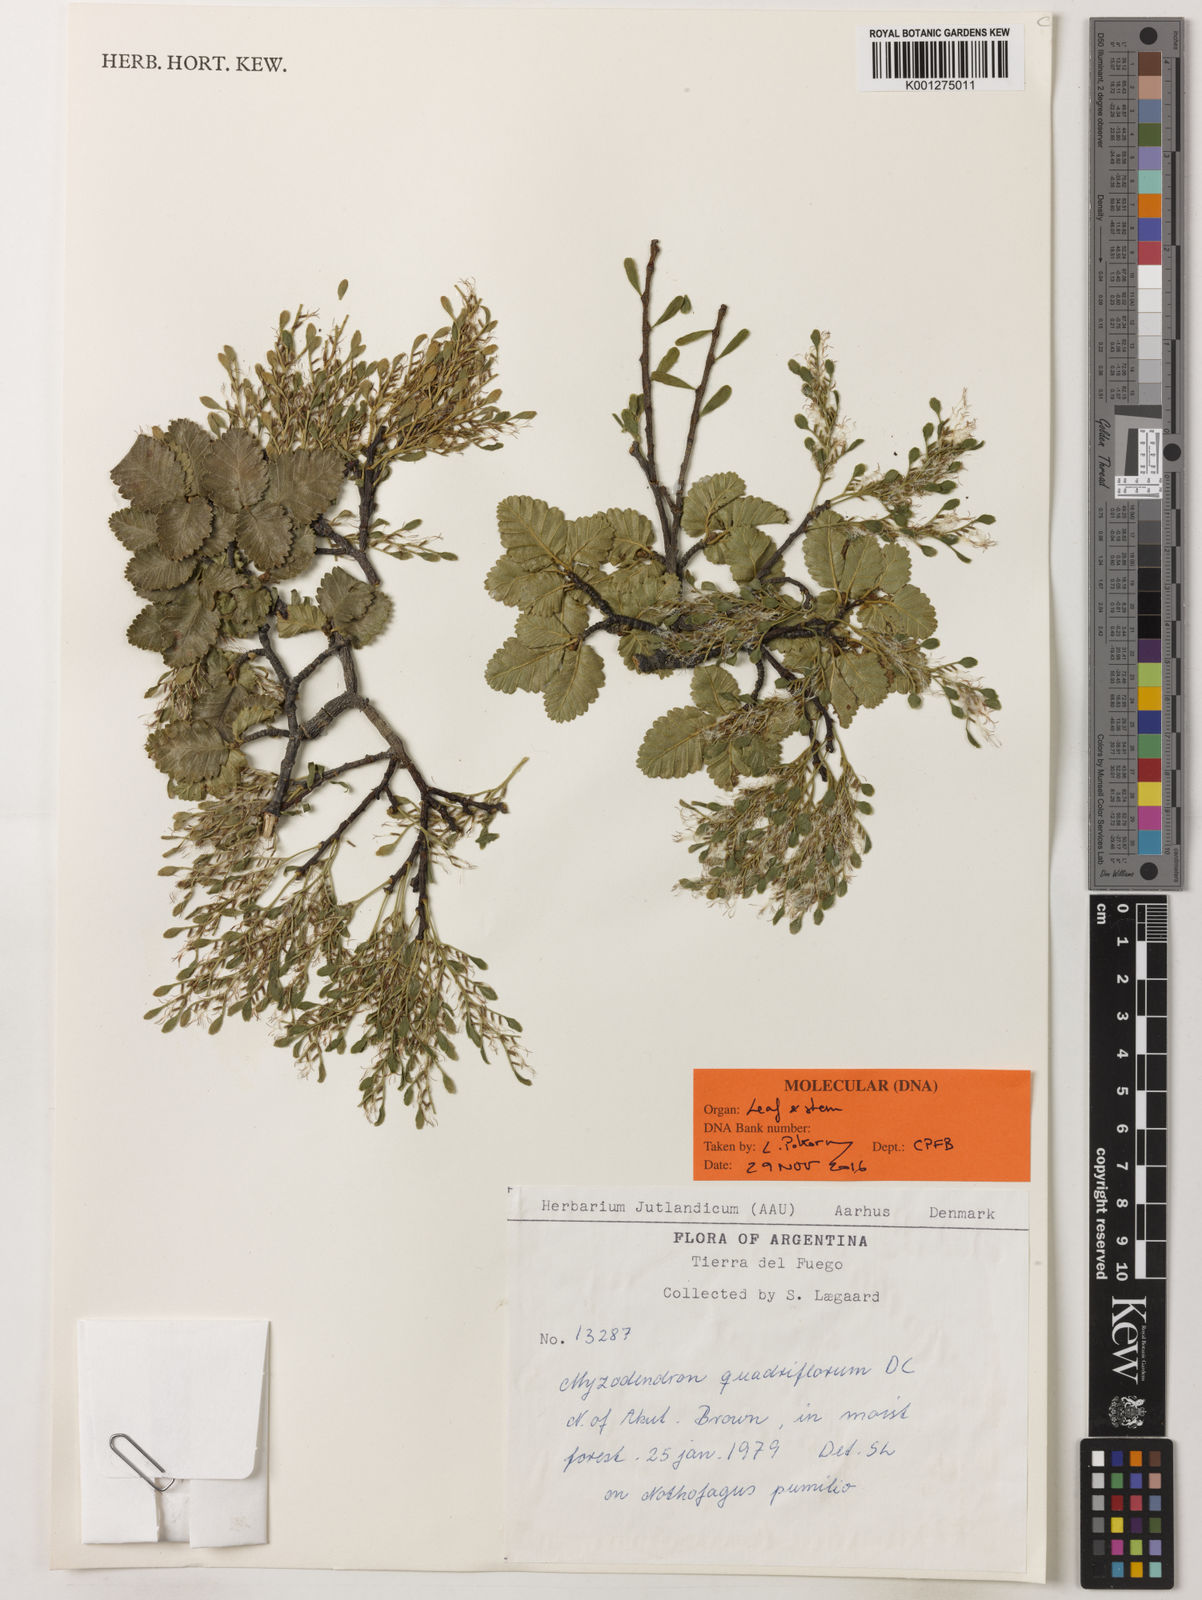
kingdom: Plantae
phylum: Tracheophyta
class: Magnoliopsida
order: Santalales
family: Misodendraceae
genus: Misodendrum
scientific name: Misodendrum quadriflorum
